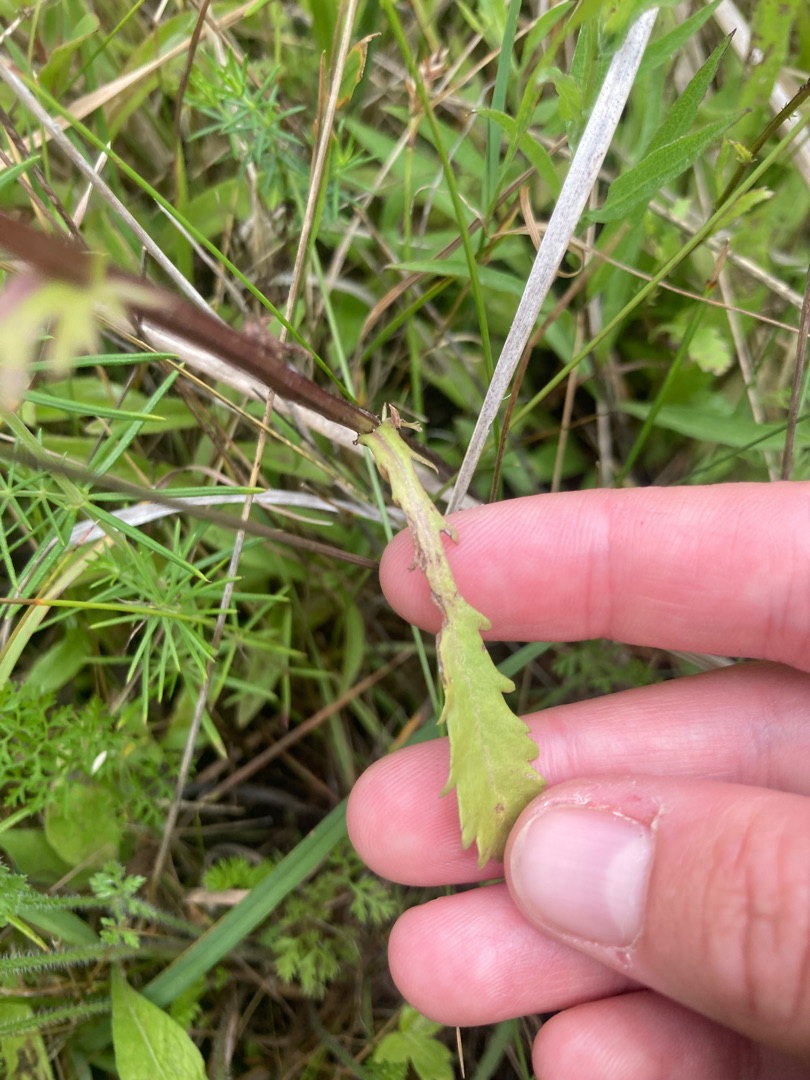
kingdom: Plantae
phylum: Tracheophyta
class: Magnoliopsida
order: Asterales
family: Asteraceae
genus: Leucanthemum
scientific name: Leucanthemum vulgare
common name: Hvid okseøje
